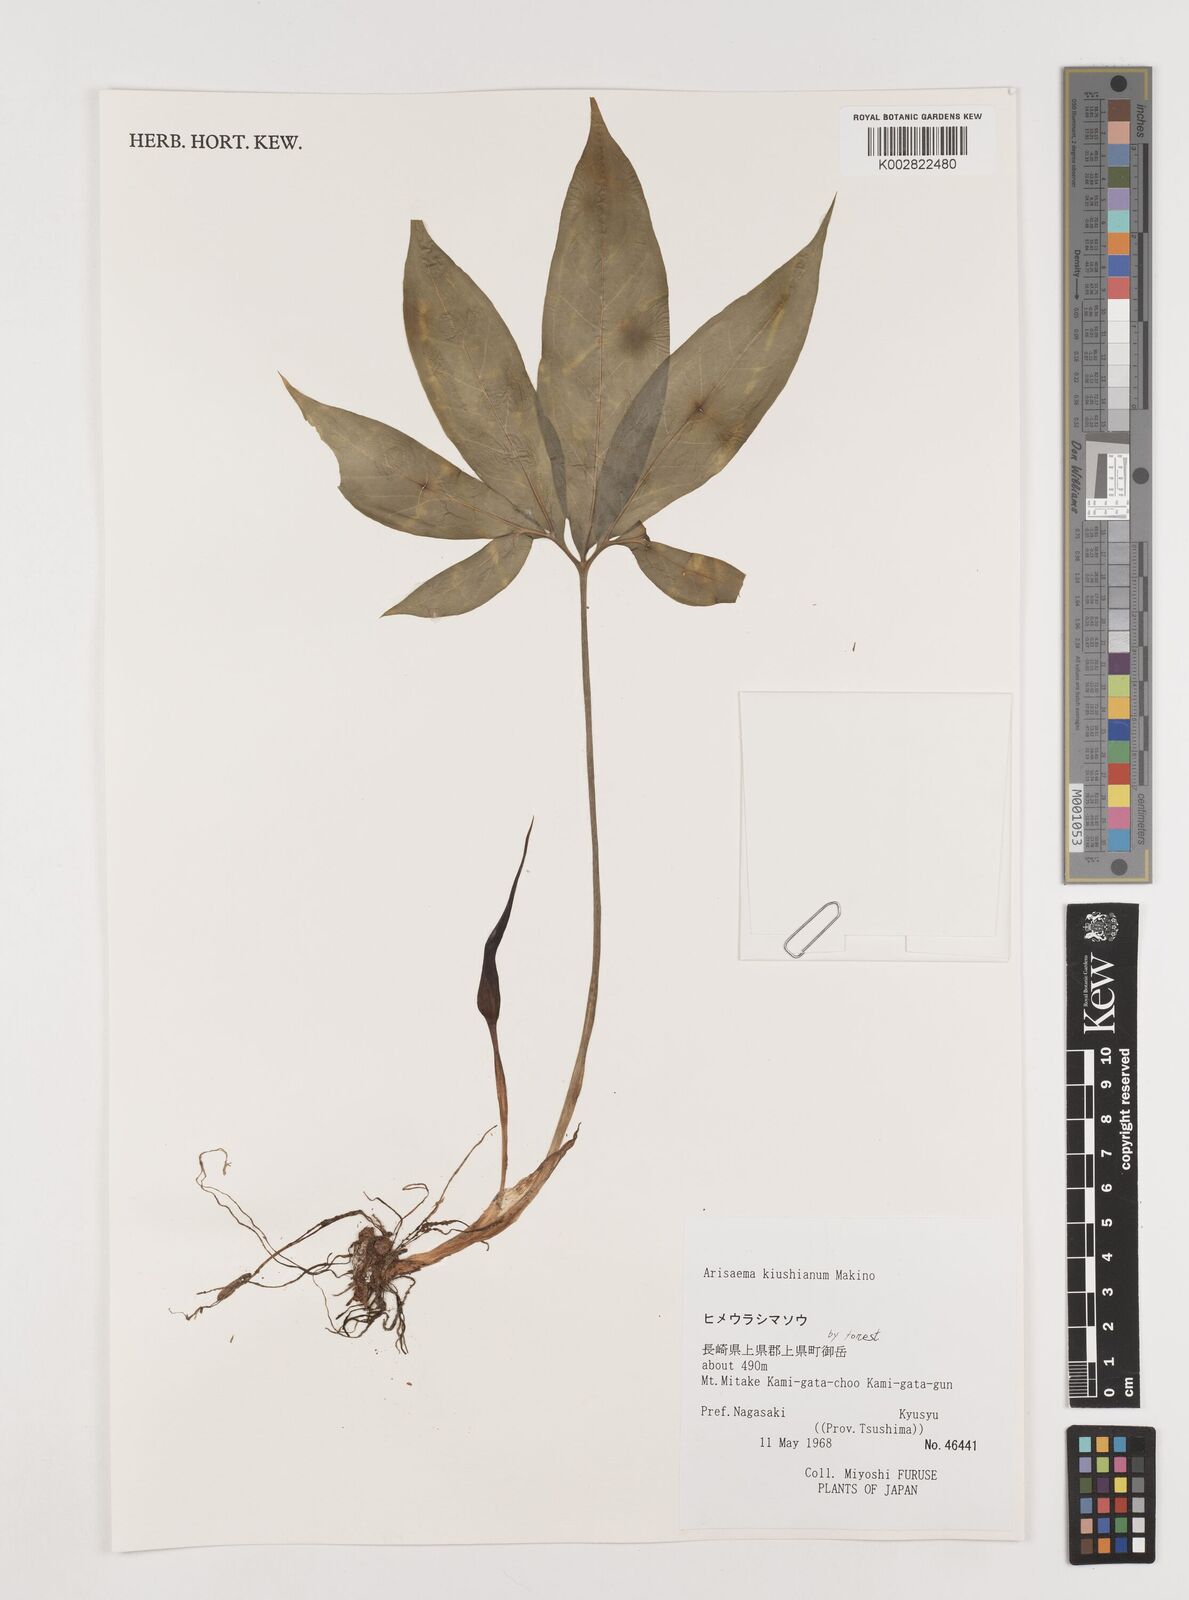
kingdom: Plantae
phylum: Tracheophyta
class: Liliopsida
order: Alismatales
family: Araceae
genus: Arisaema
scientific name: Arisaema kiushianum
